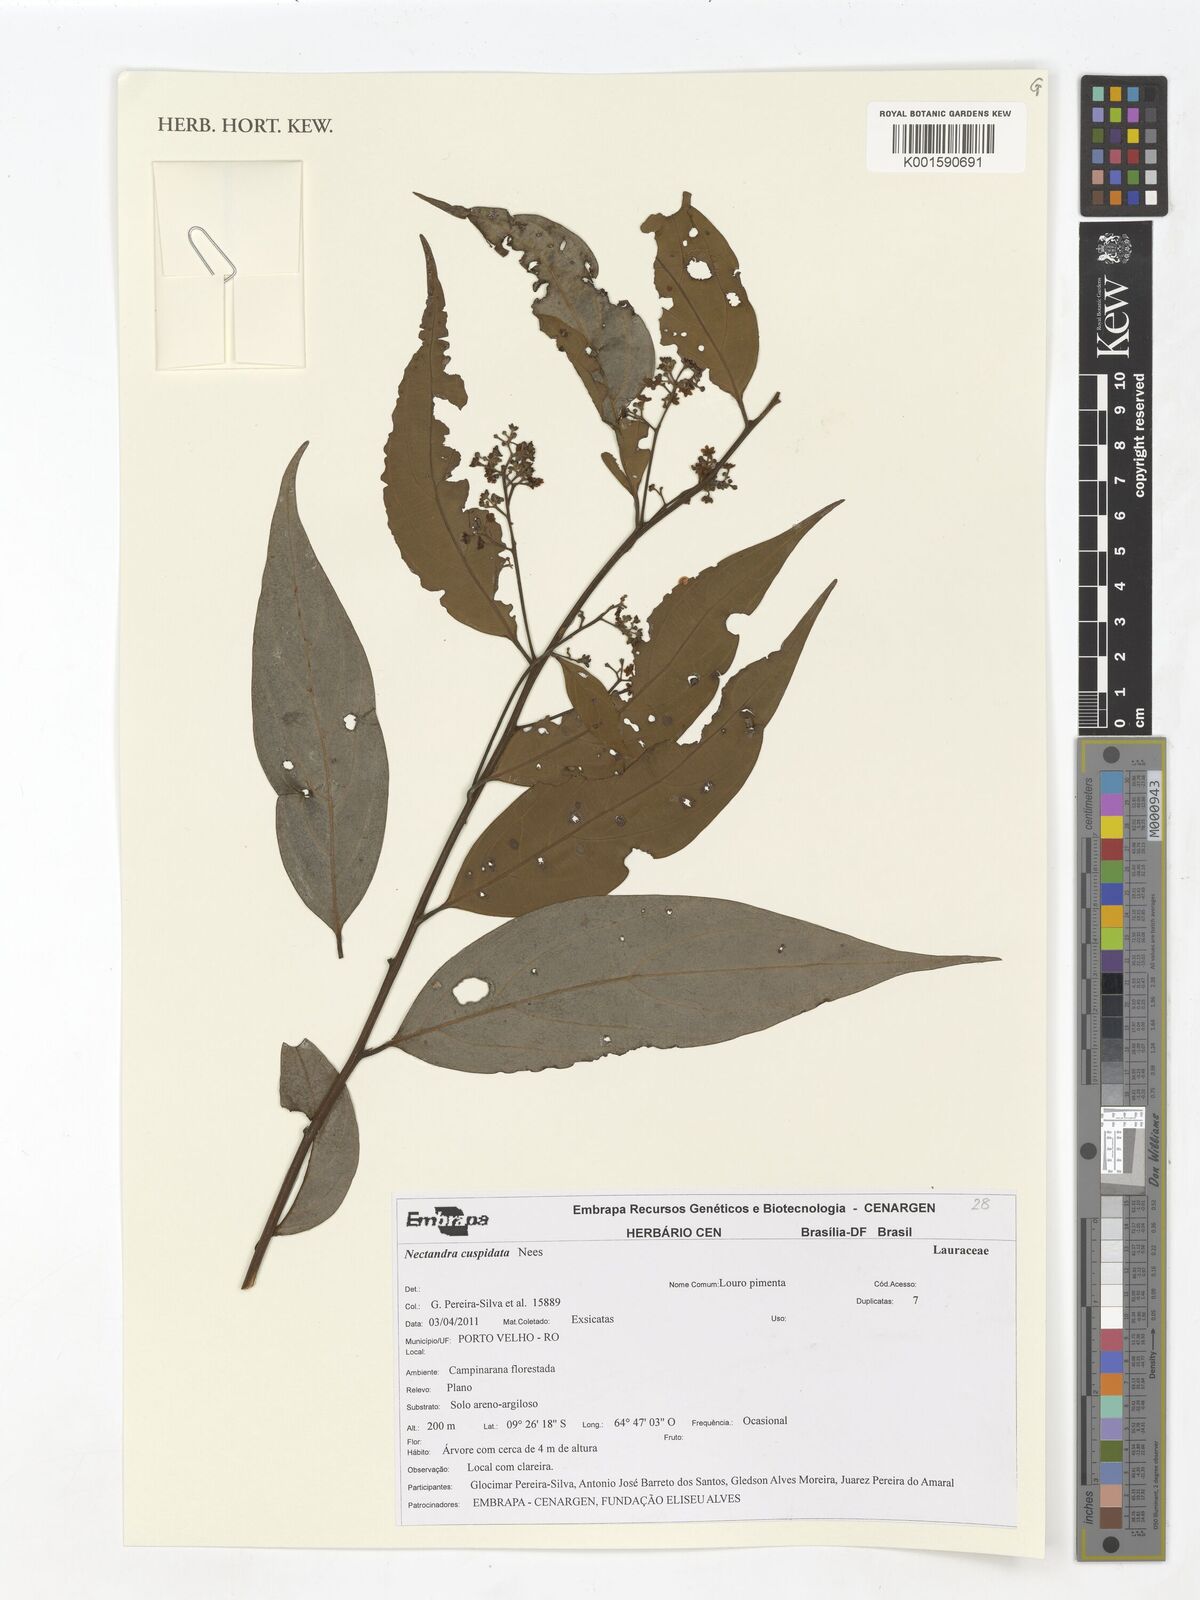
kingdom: Plantae
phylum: Tracheophyta
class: Magnoliopsida
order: Laurales
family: Lauraceae
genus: Nectandra
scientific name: Nectandra cuspidata
